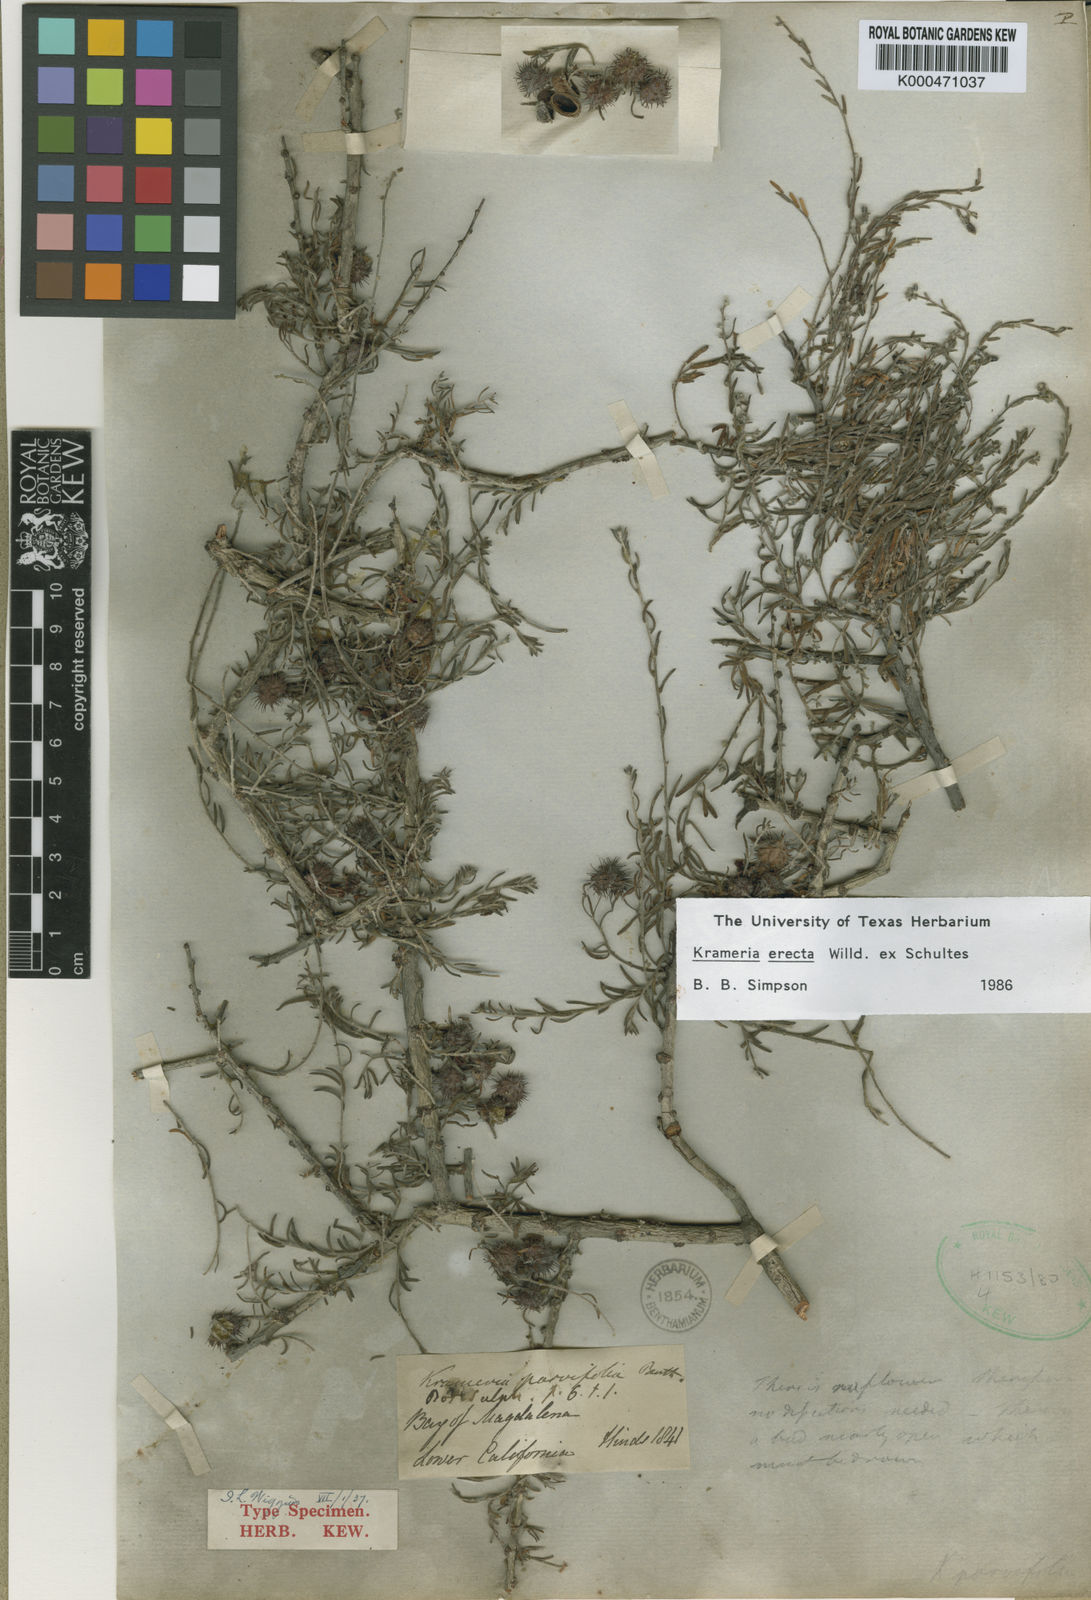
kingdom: Plantae
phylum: Tracheophyta
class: Magnoliopsida
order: Zygophyllales
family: Krameriaceae
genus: Krameria
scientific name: Krameria erecta
